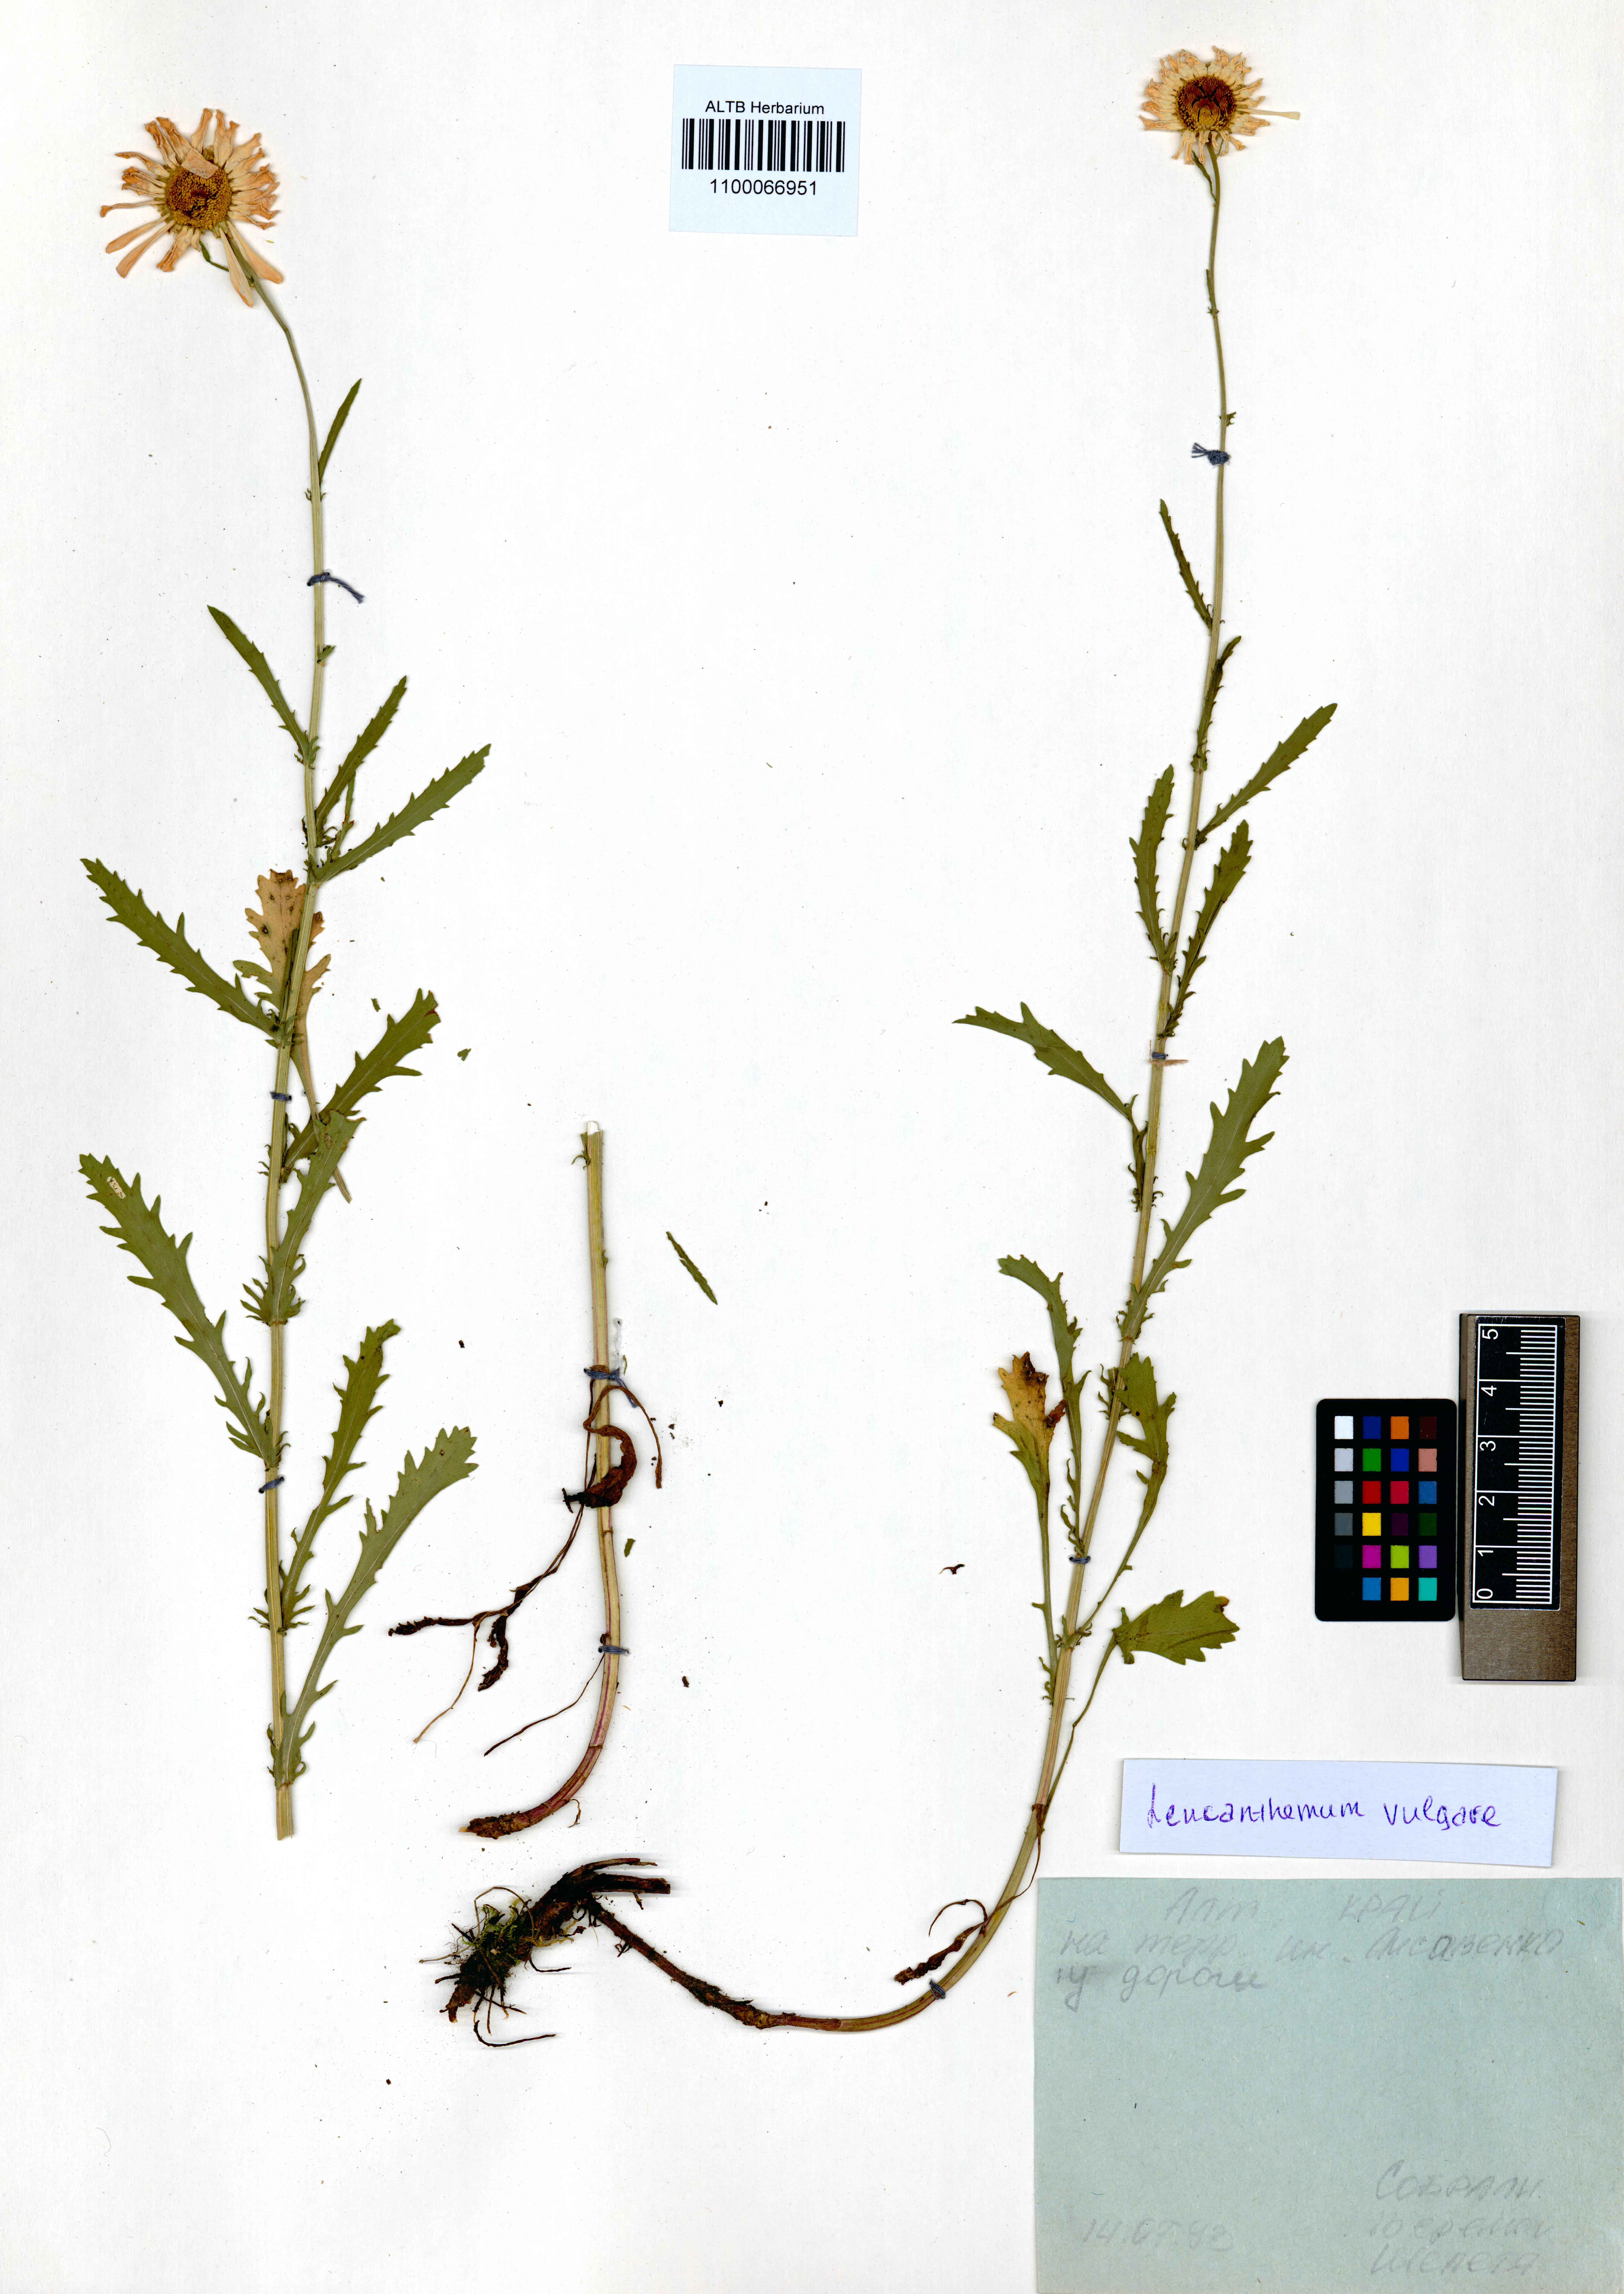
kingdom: Plantae
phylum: Tracheophyta
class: Magnoliopsida
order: Asterales
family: Asteraceae
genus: Leucanthemum
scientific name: Leucanthemum vulgare
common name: Oxeye daisy
